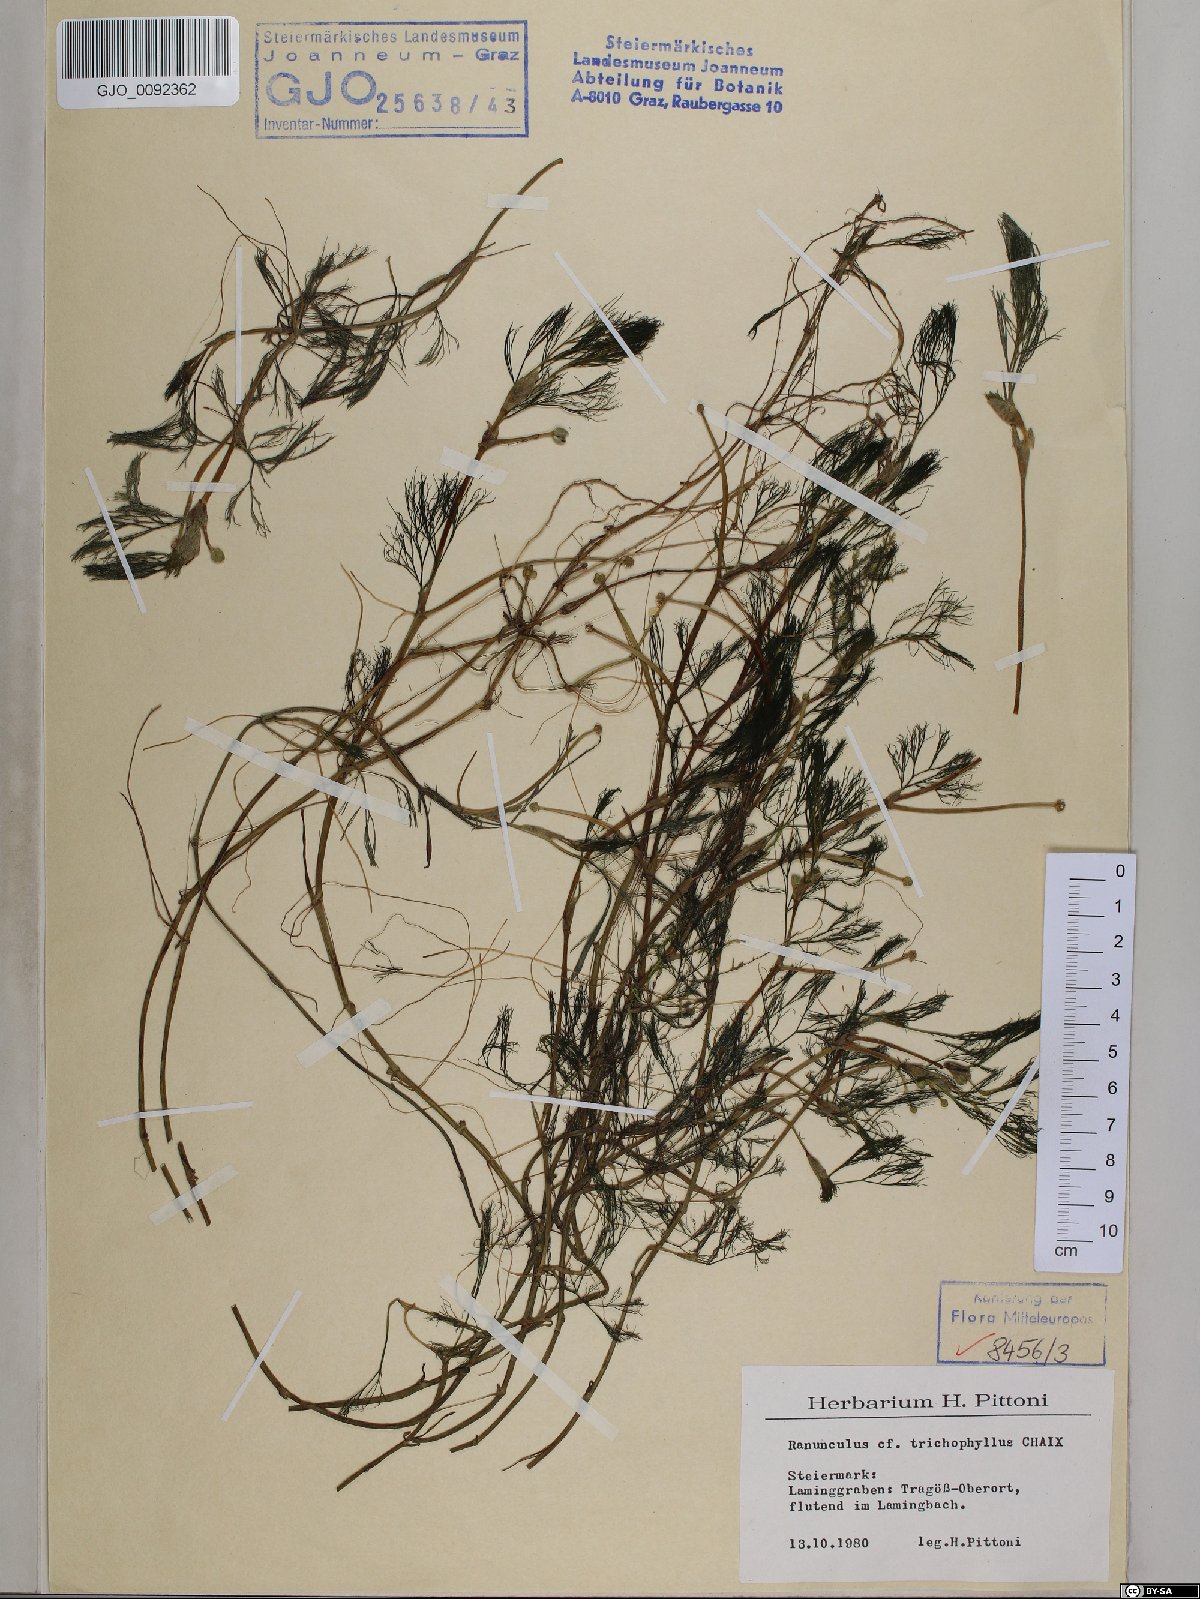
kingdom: Plantae
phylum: Tracheophyta
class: Magnoliopsida
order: Ranunculales
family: Ranunculaceae
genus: Ranunculus
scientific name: Ranunculus trichophyllus
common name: Thread-leaved water-crowfoot
